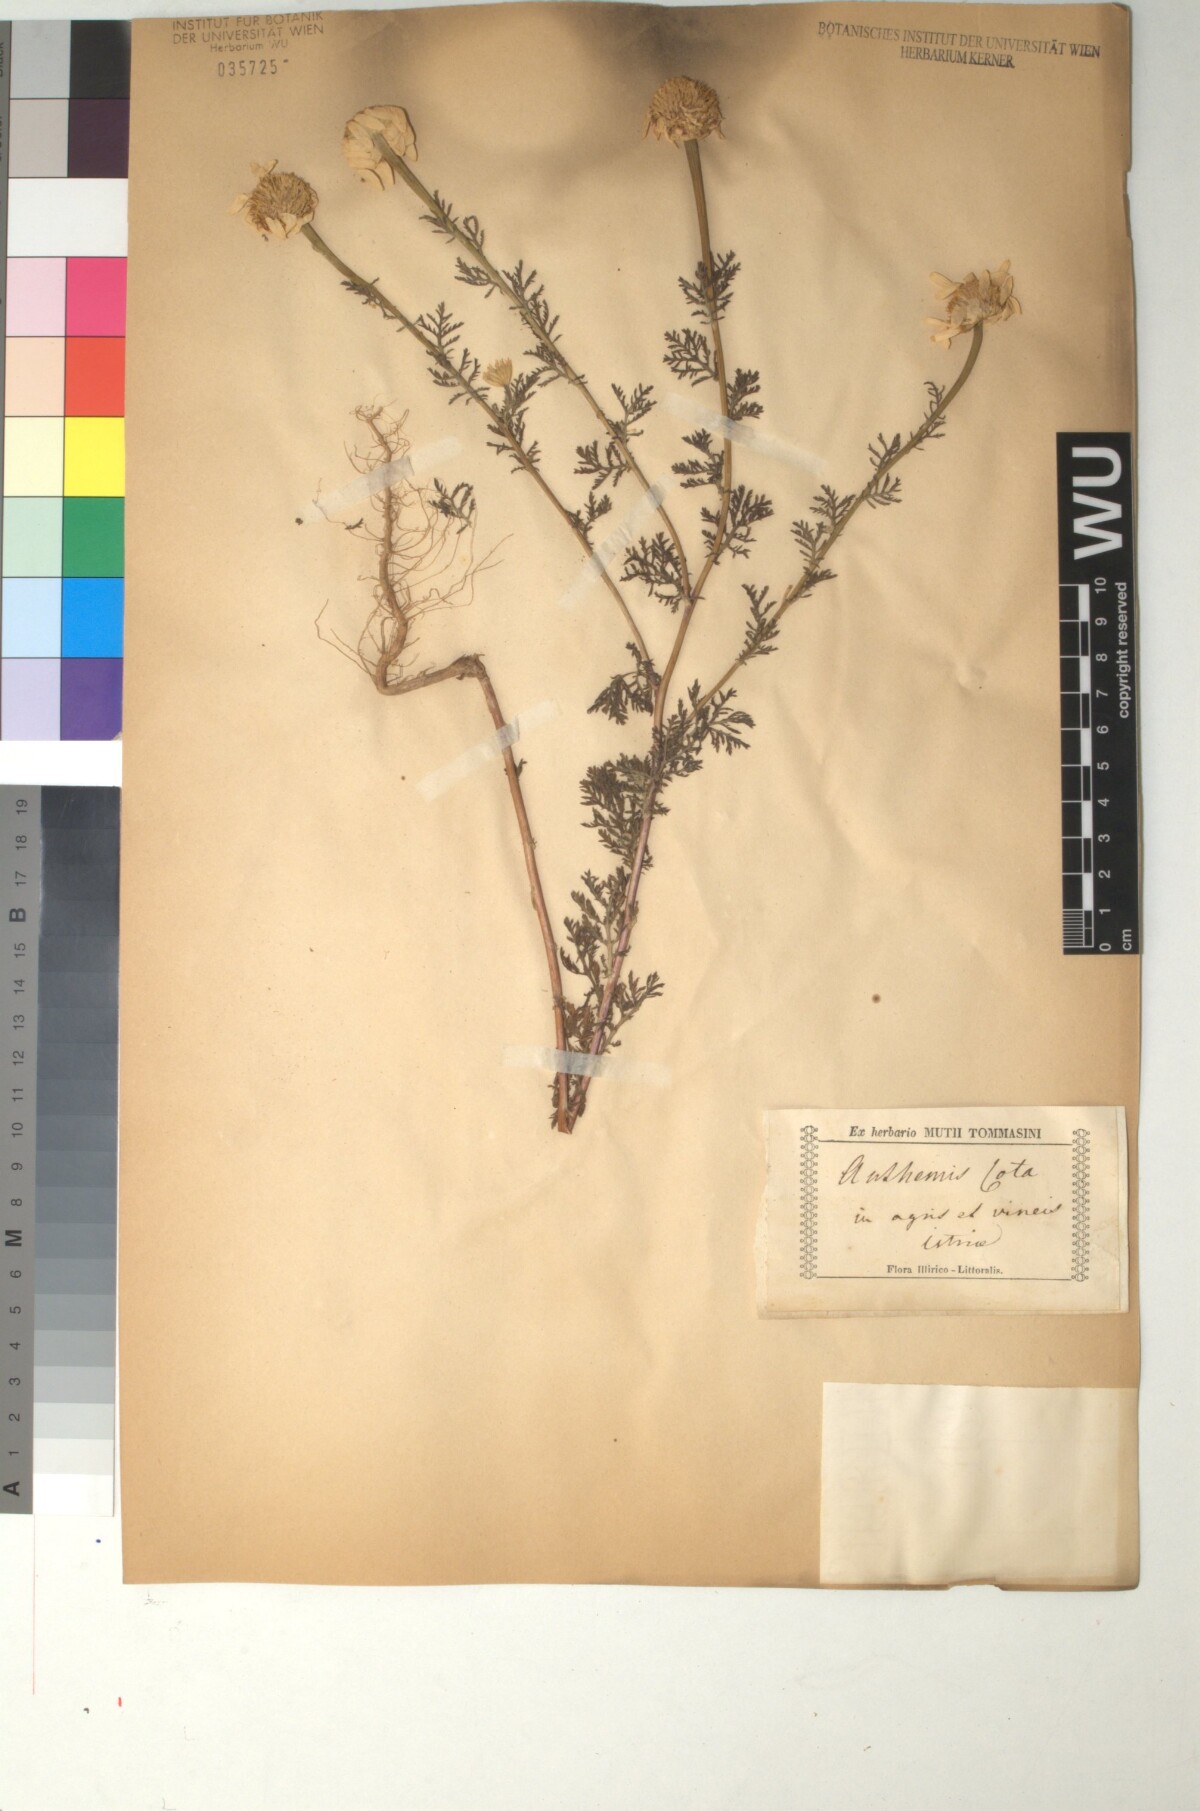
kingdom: Plantae
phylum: Tracheophyta
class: Magnoliopsida
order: Asterales
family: Asteraceae
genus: Cota
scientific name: Cota altissima
